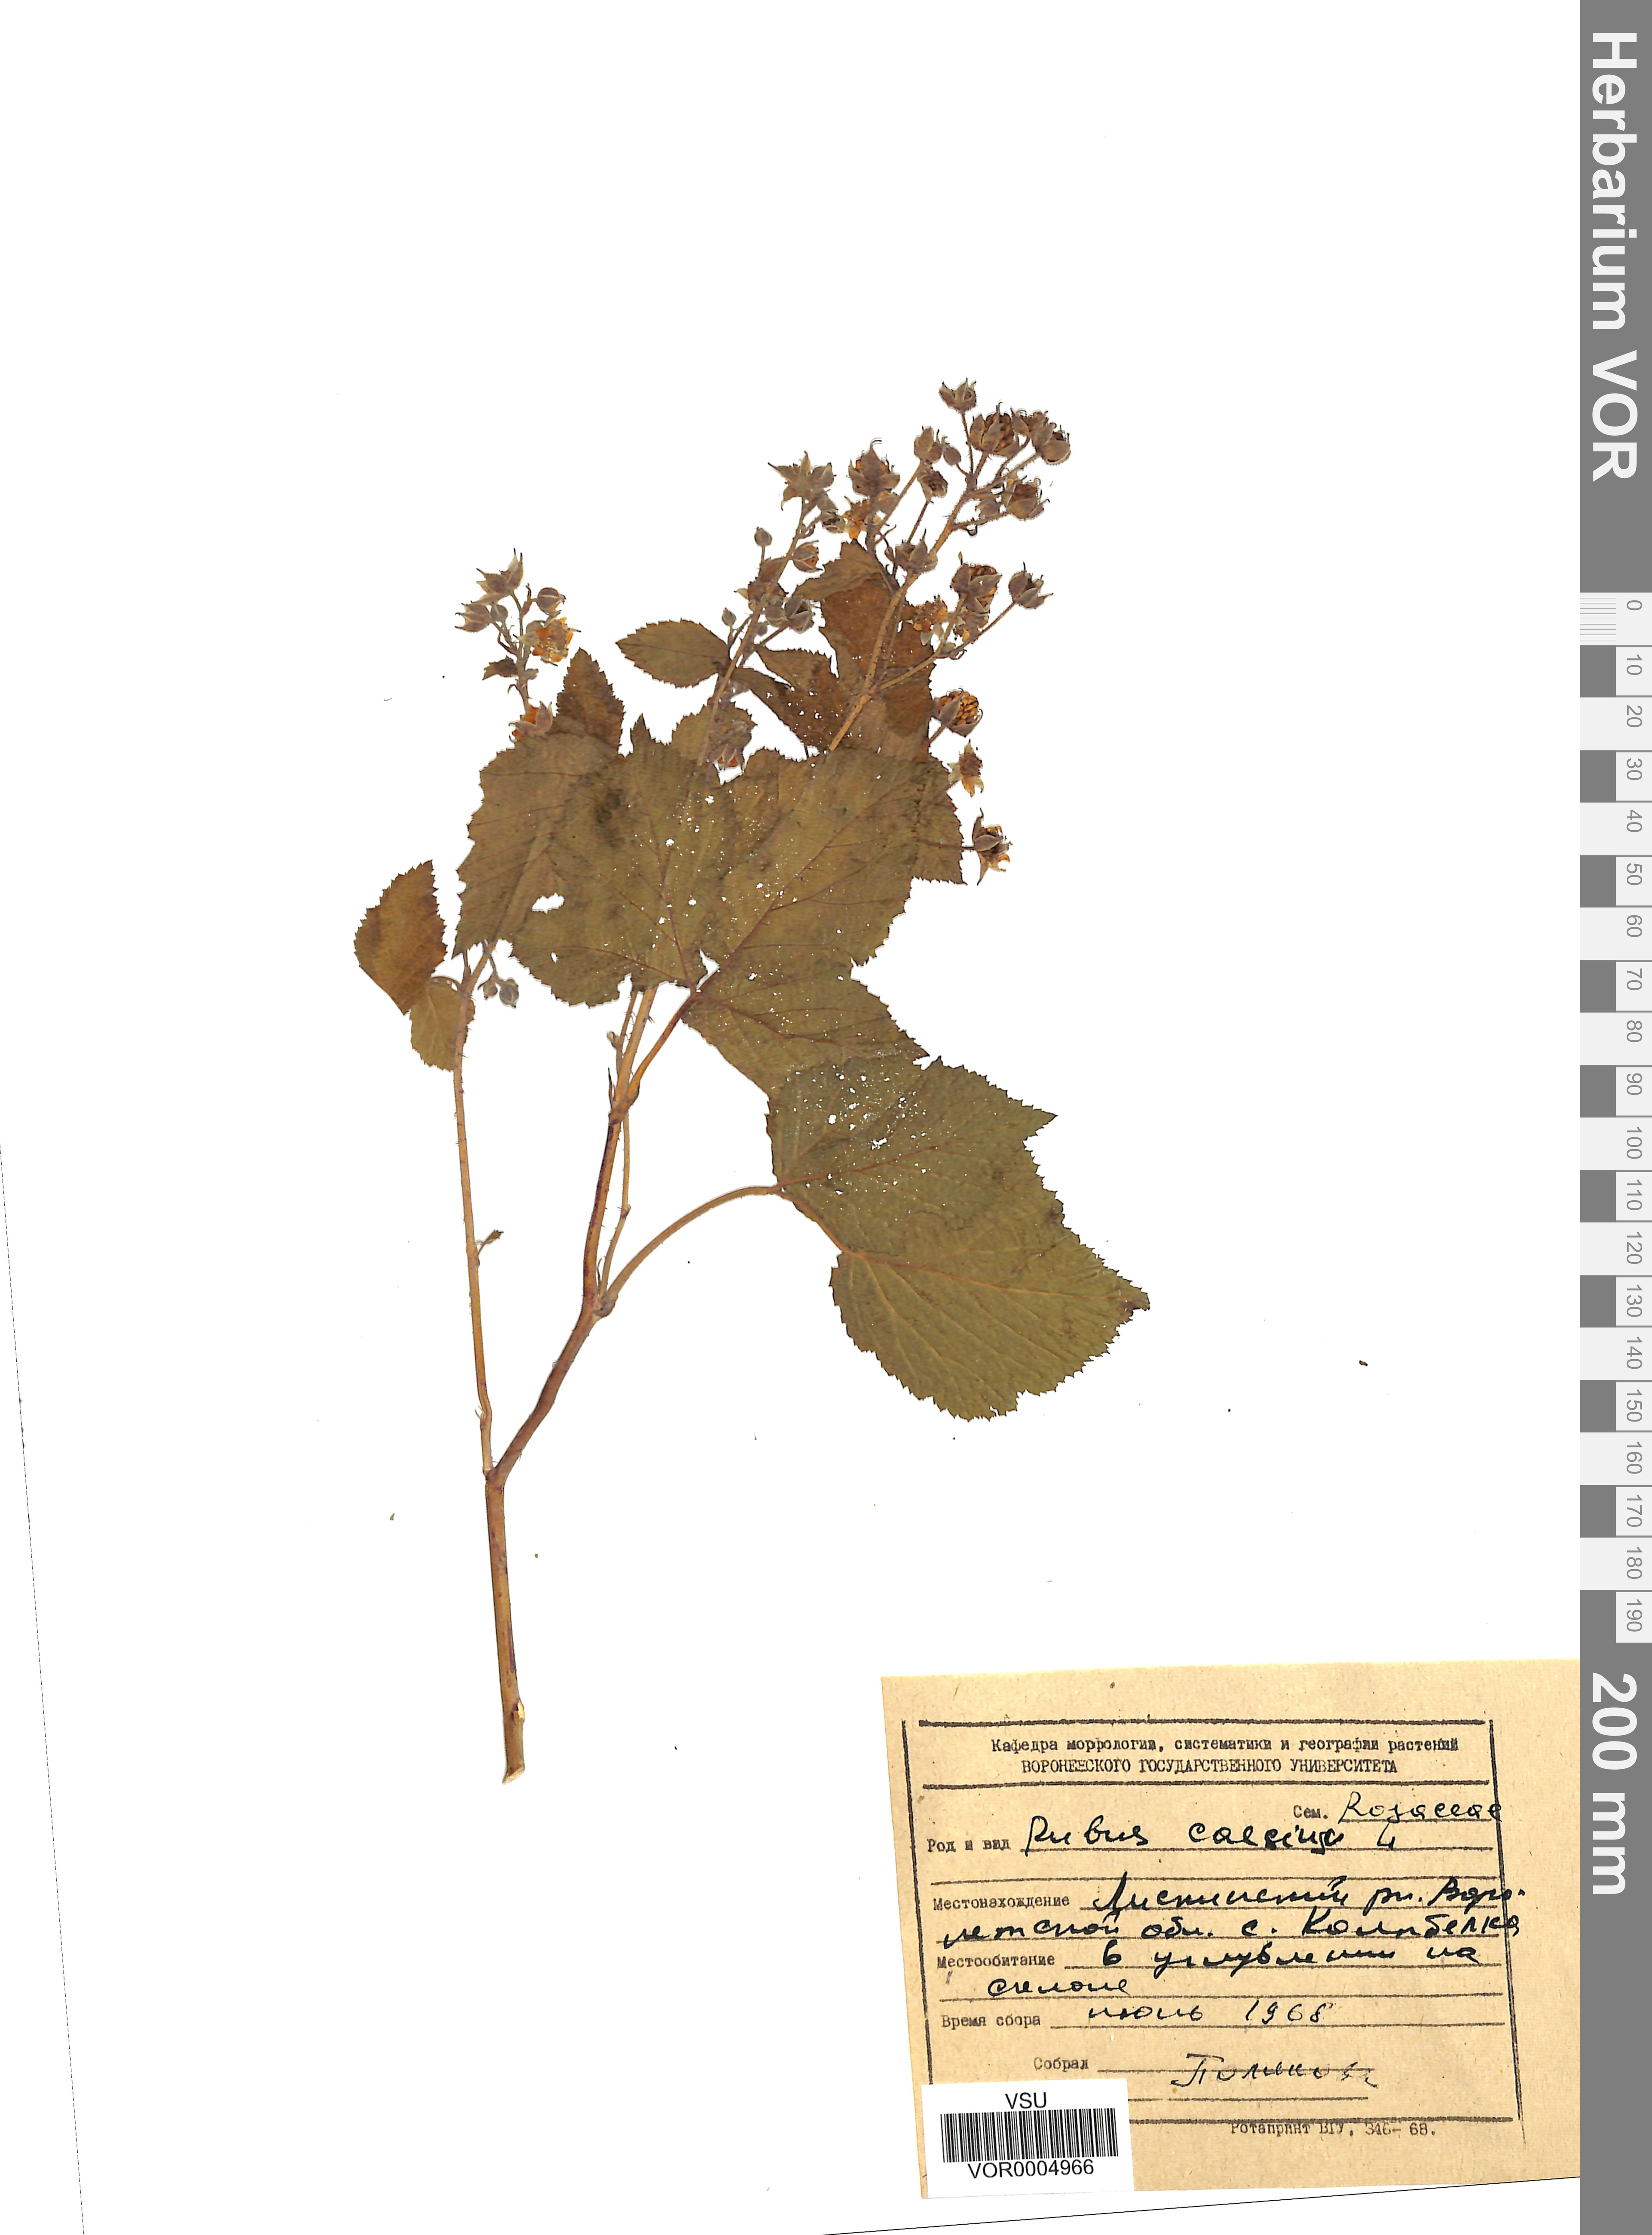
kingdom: Plantae
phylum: Tracheophyta
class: Magnoliopsida
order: Rosales
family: Rosaceae
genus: Rubus
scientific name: Rubus caesius
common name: Dewberry
